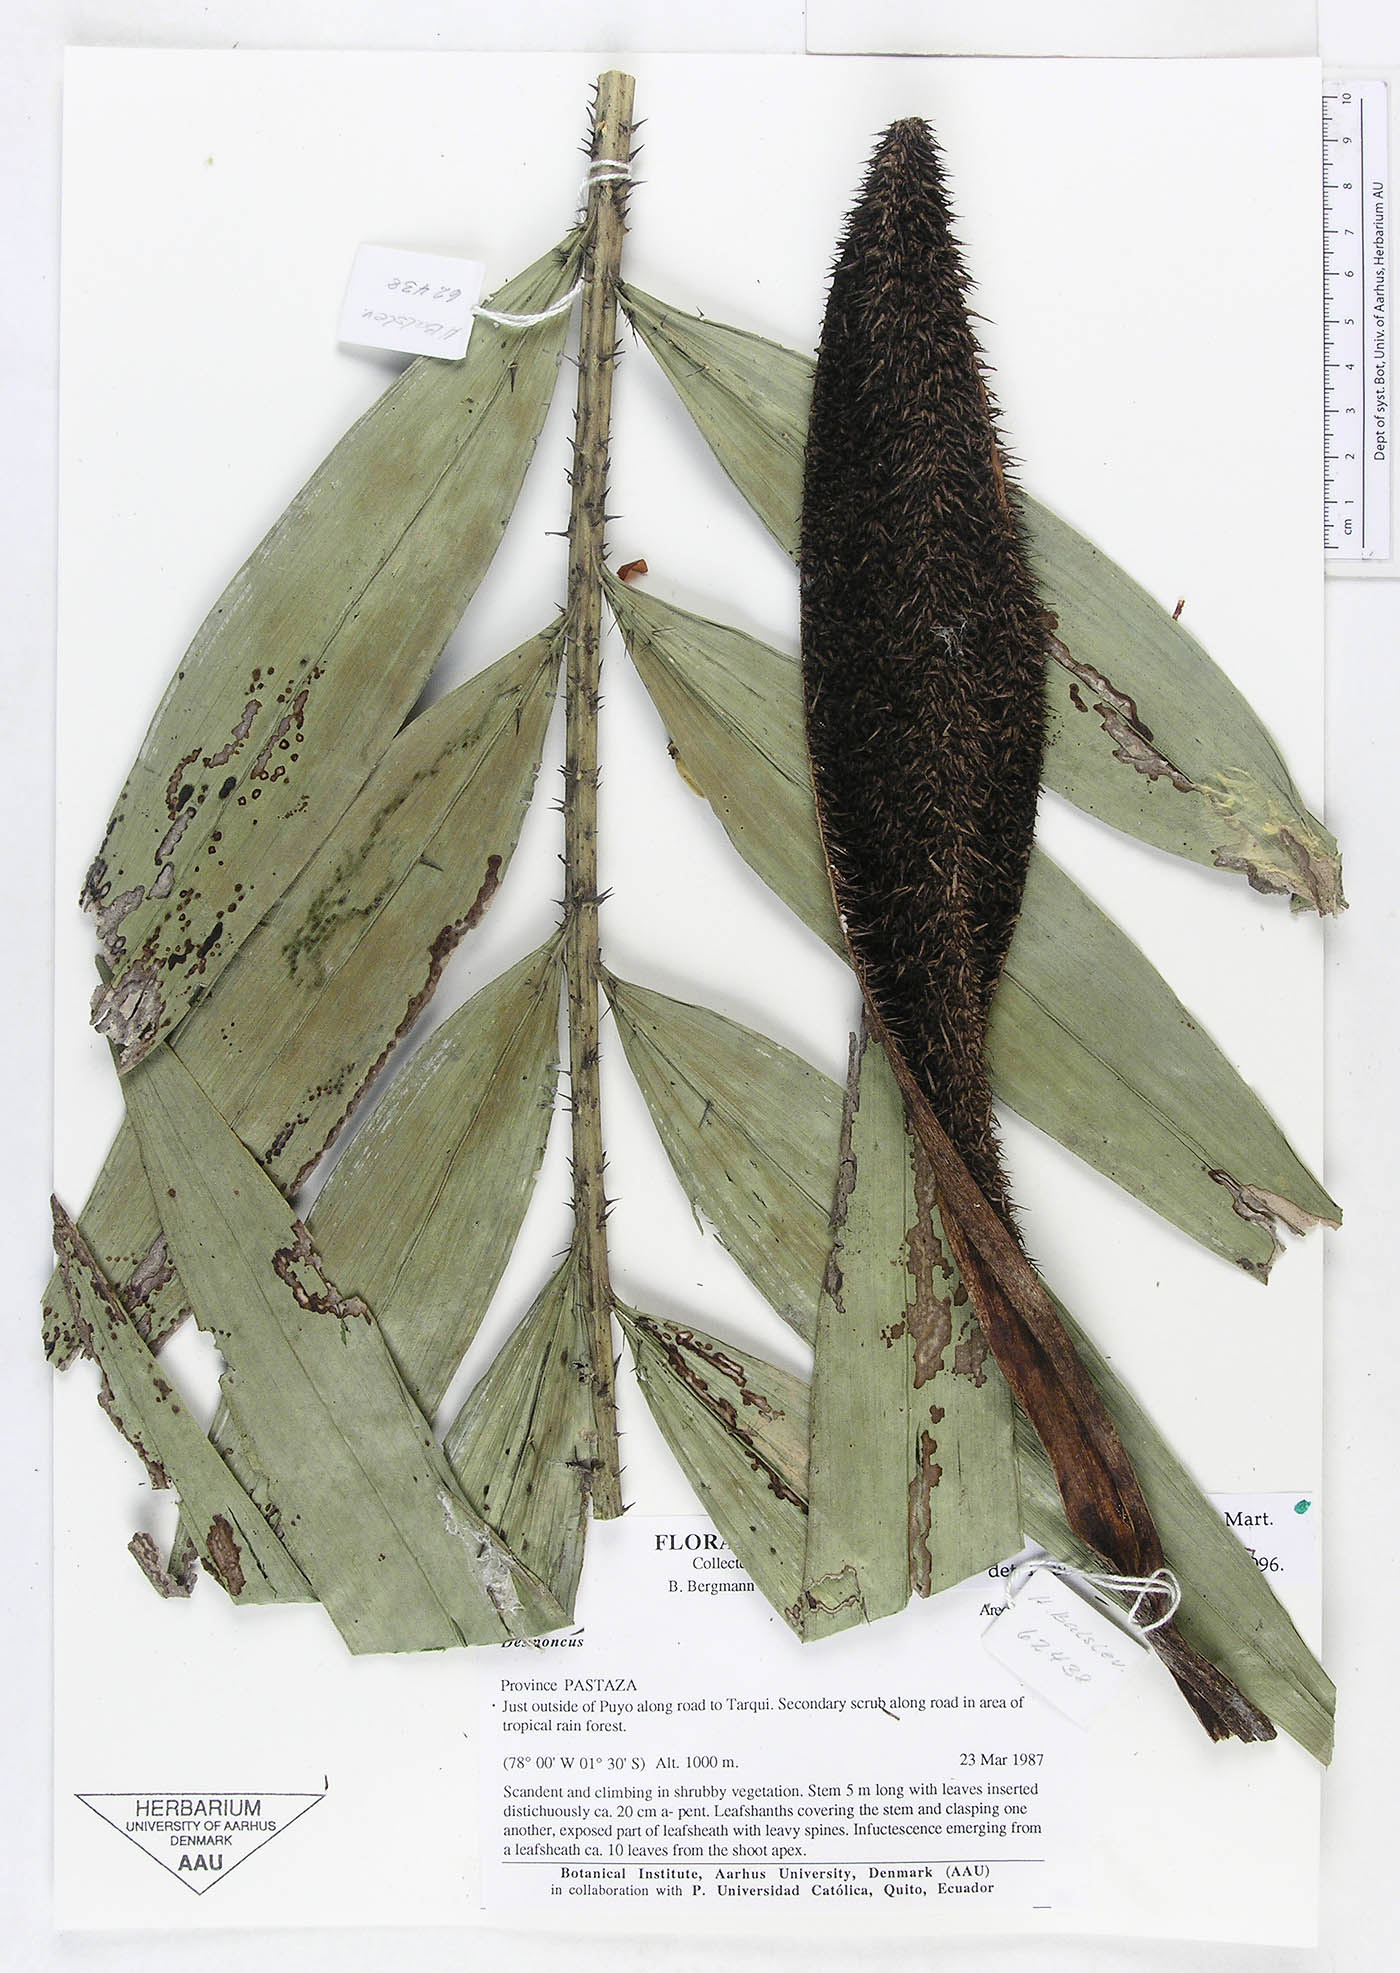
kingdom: Plantae
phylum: Tracheophyta
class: Liliopsida
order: Arecales
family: Arecaceae
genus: Desmoncus
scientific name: Desmoncus polyacanthos
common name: Suriname bramble palm
